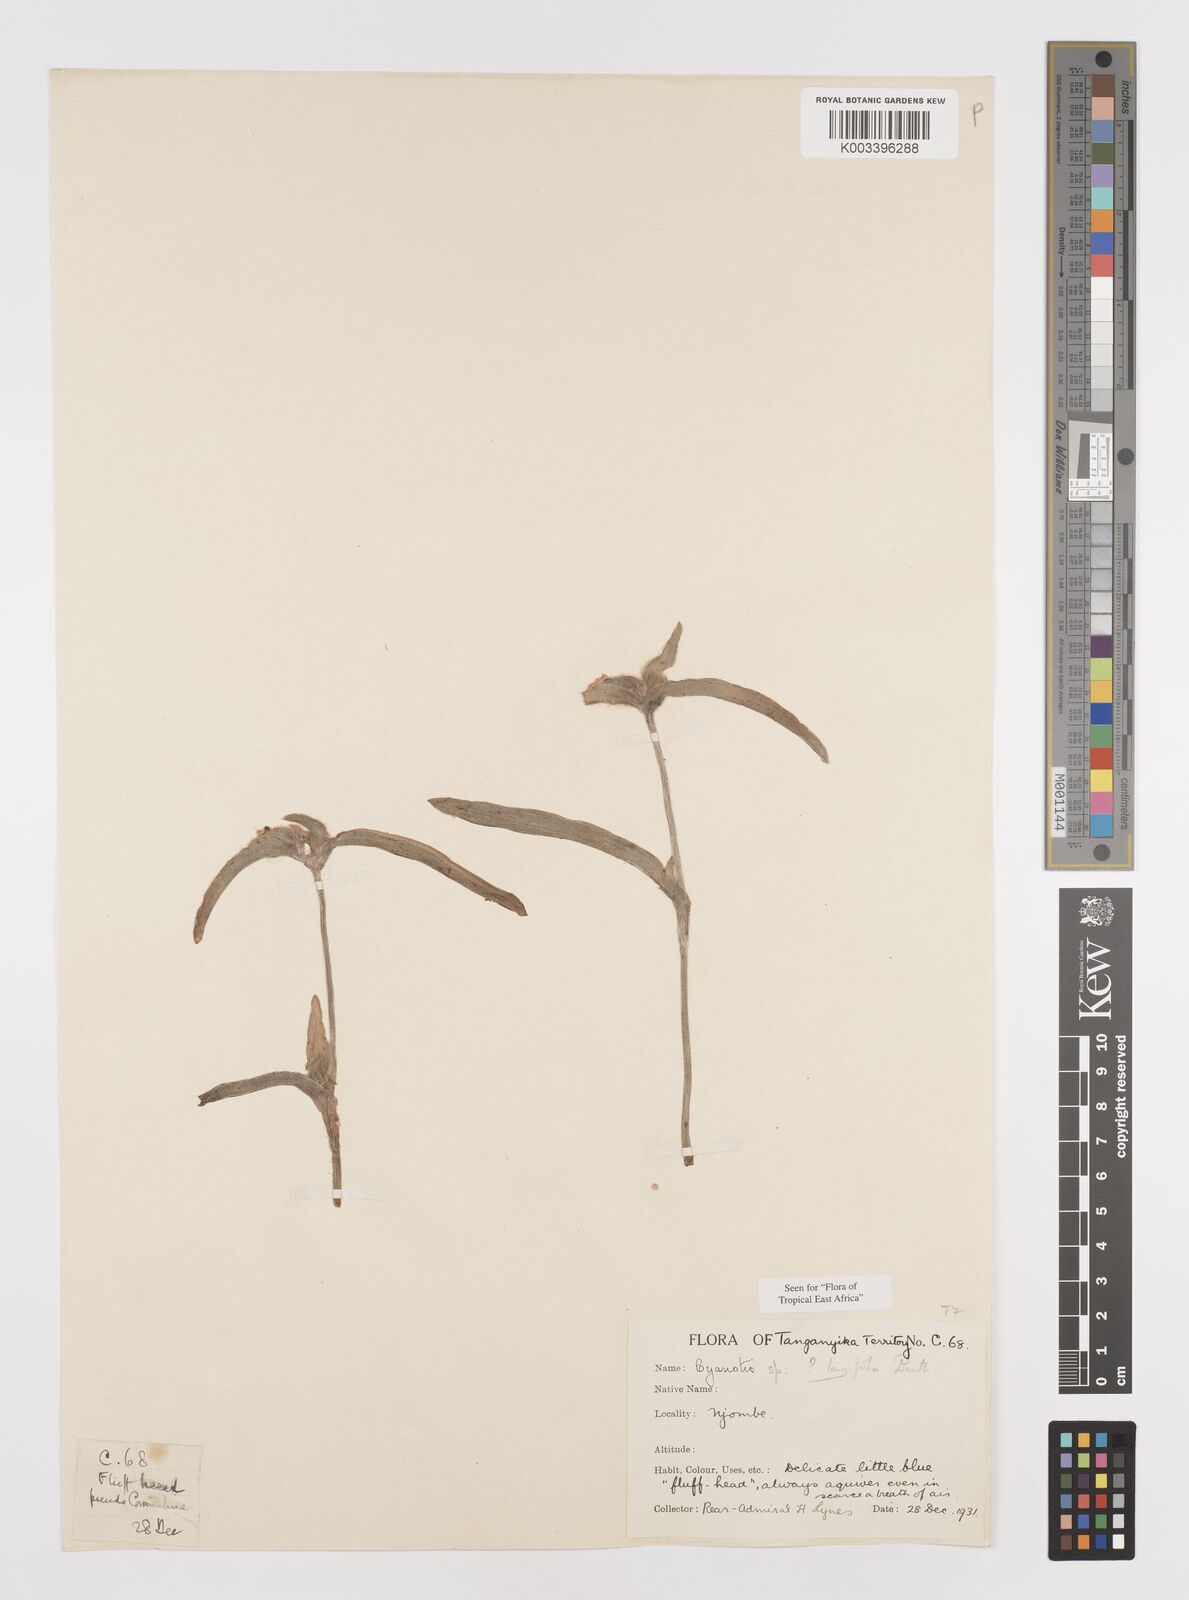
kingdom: Plantae
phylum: Tracheophyta
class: Liliopsida
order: Commelinales
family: Commelinaceae
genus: Cyanotis
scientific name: Cyanotis longifolia
